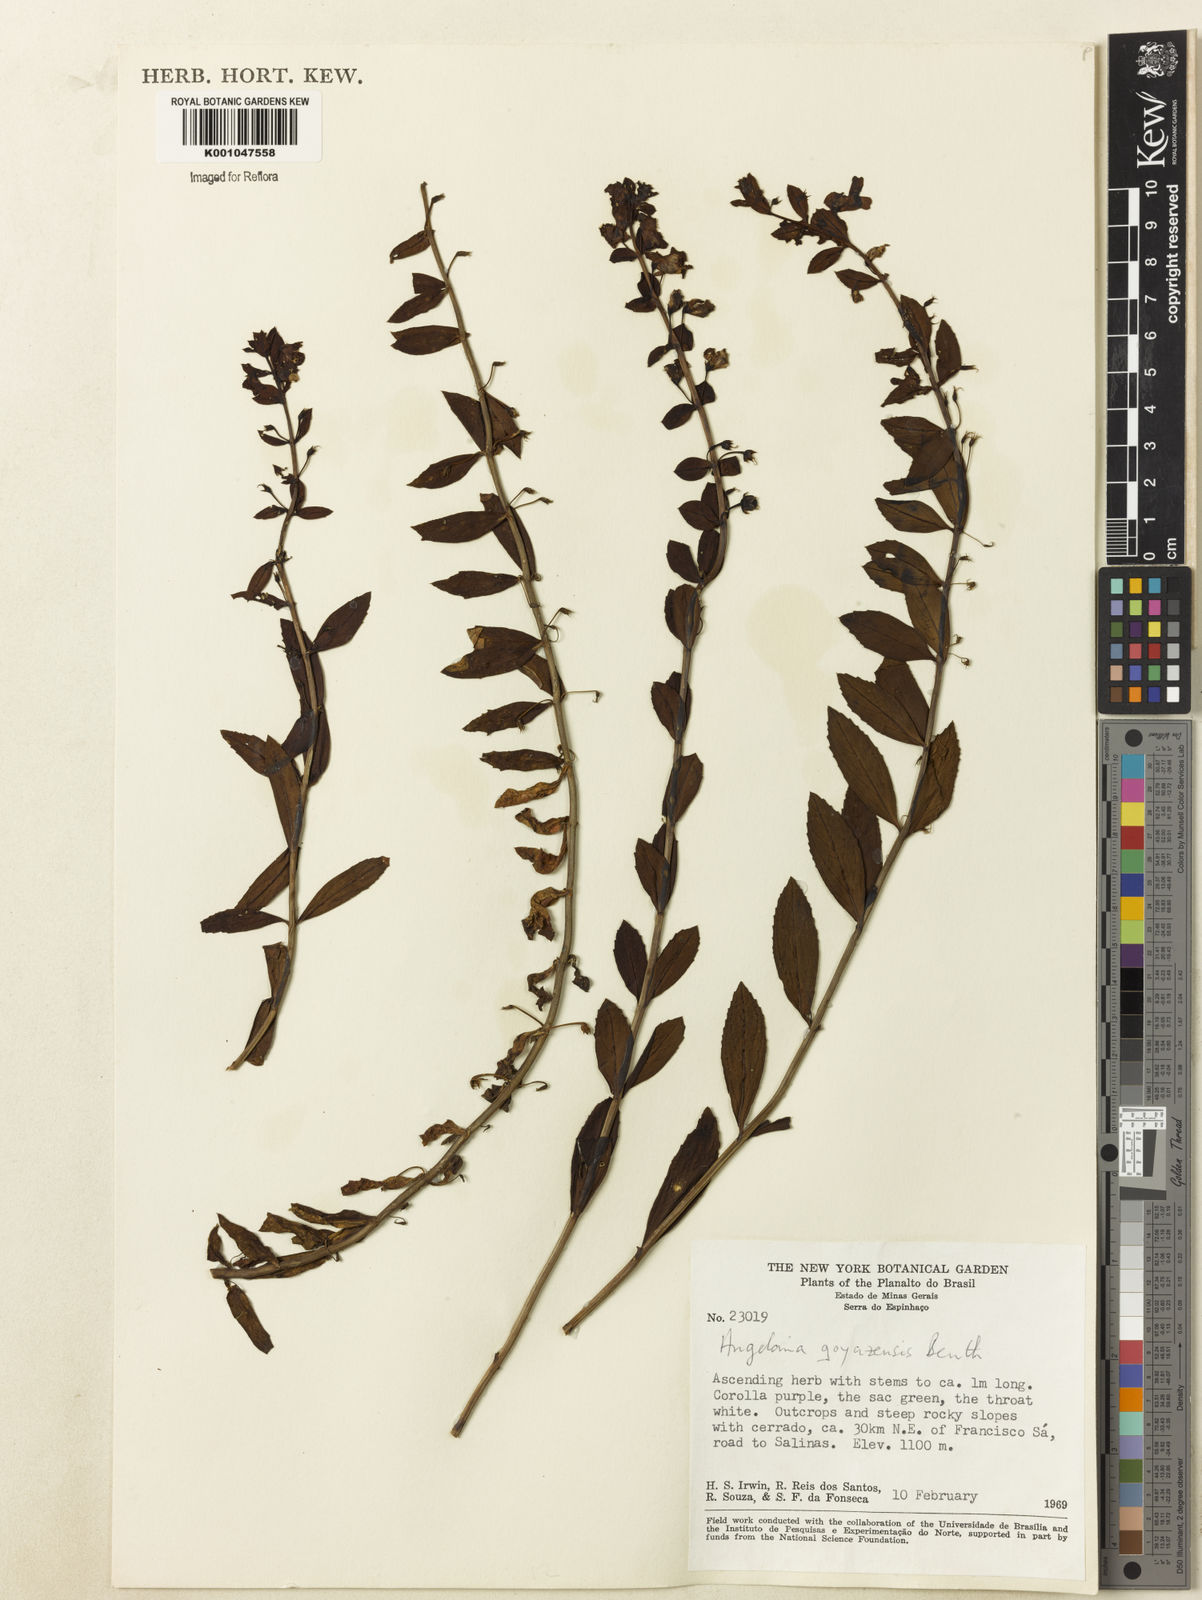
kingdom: Plantae
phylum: Tracheophyta
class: Magnoliopsida
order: Lamiales
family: Plantaginaceae
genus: Angelonia
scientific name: Angelonia goyazensis
